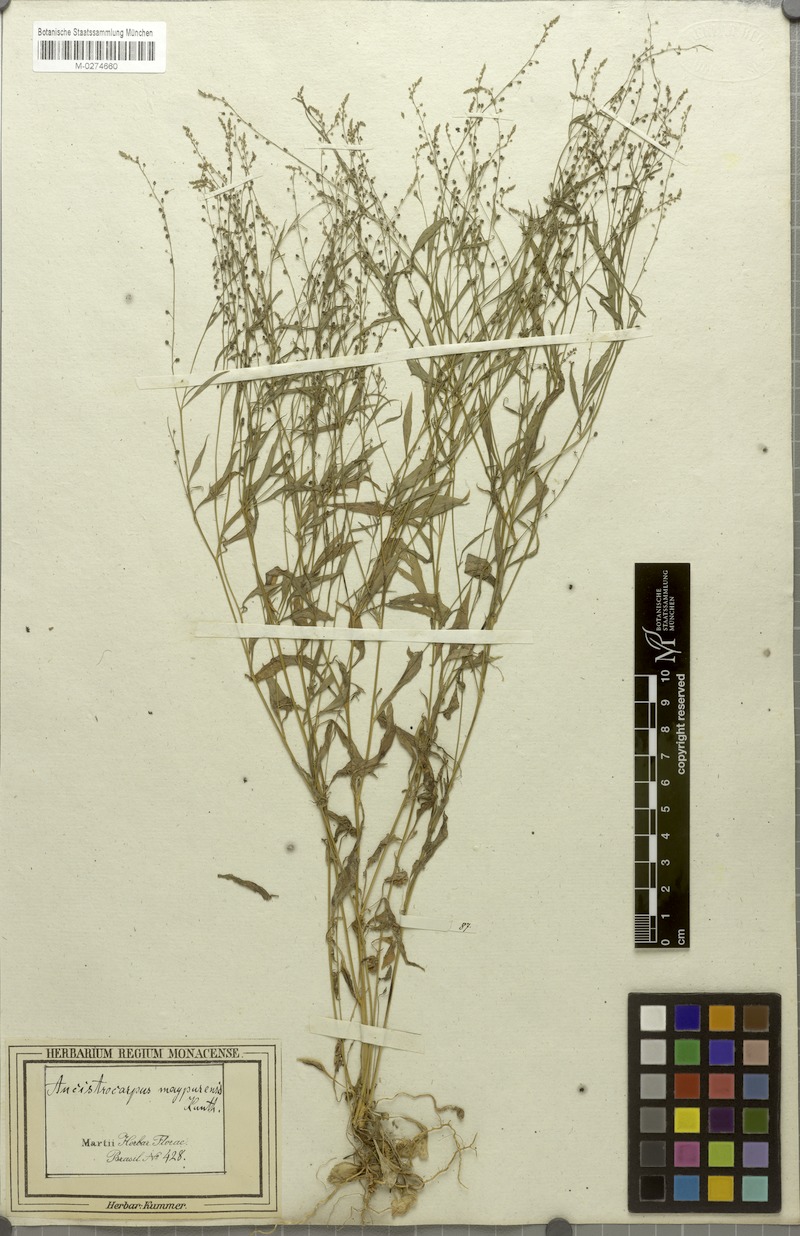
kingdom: Plantae
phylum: Tracheophyta
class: Magnoliopsida
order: Caryophyllales
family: Microteaceae
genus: Microtea
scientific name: Microtea maypurensis
